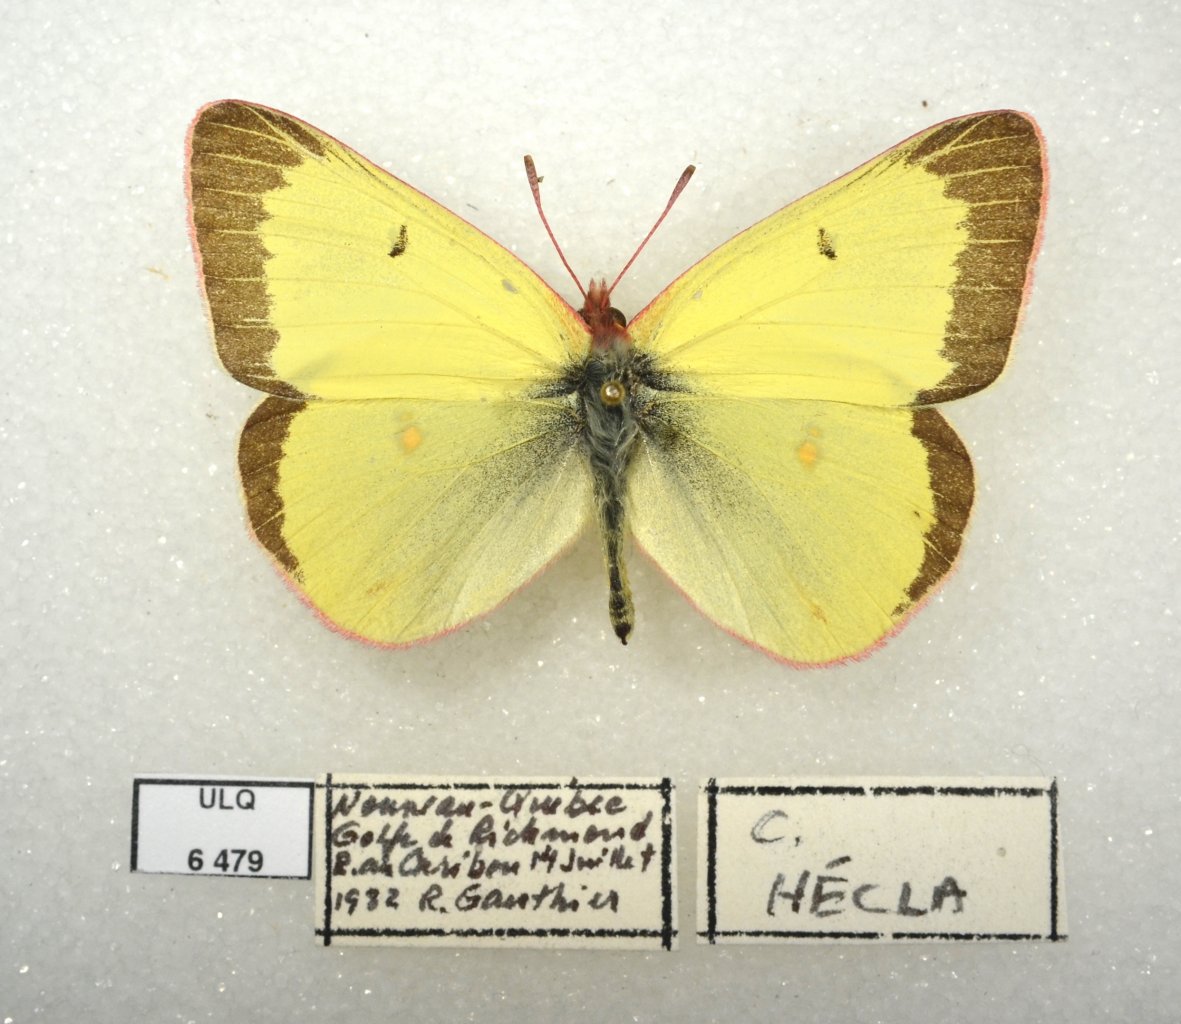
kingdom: Animalia
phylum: Arthropoda
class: Insecta
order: Lepidoptera
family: Pieridae
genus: Colias
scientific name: Colias pelidne
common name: Pelidne Sulphur
